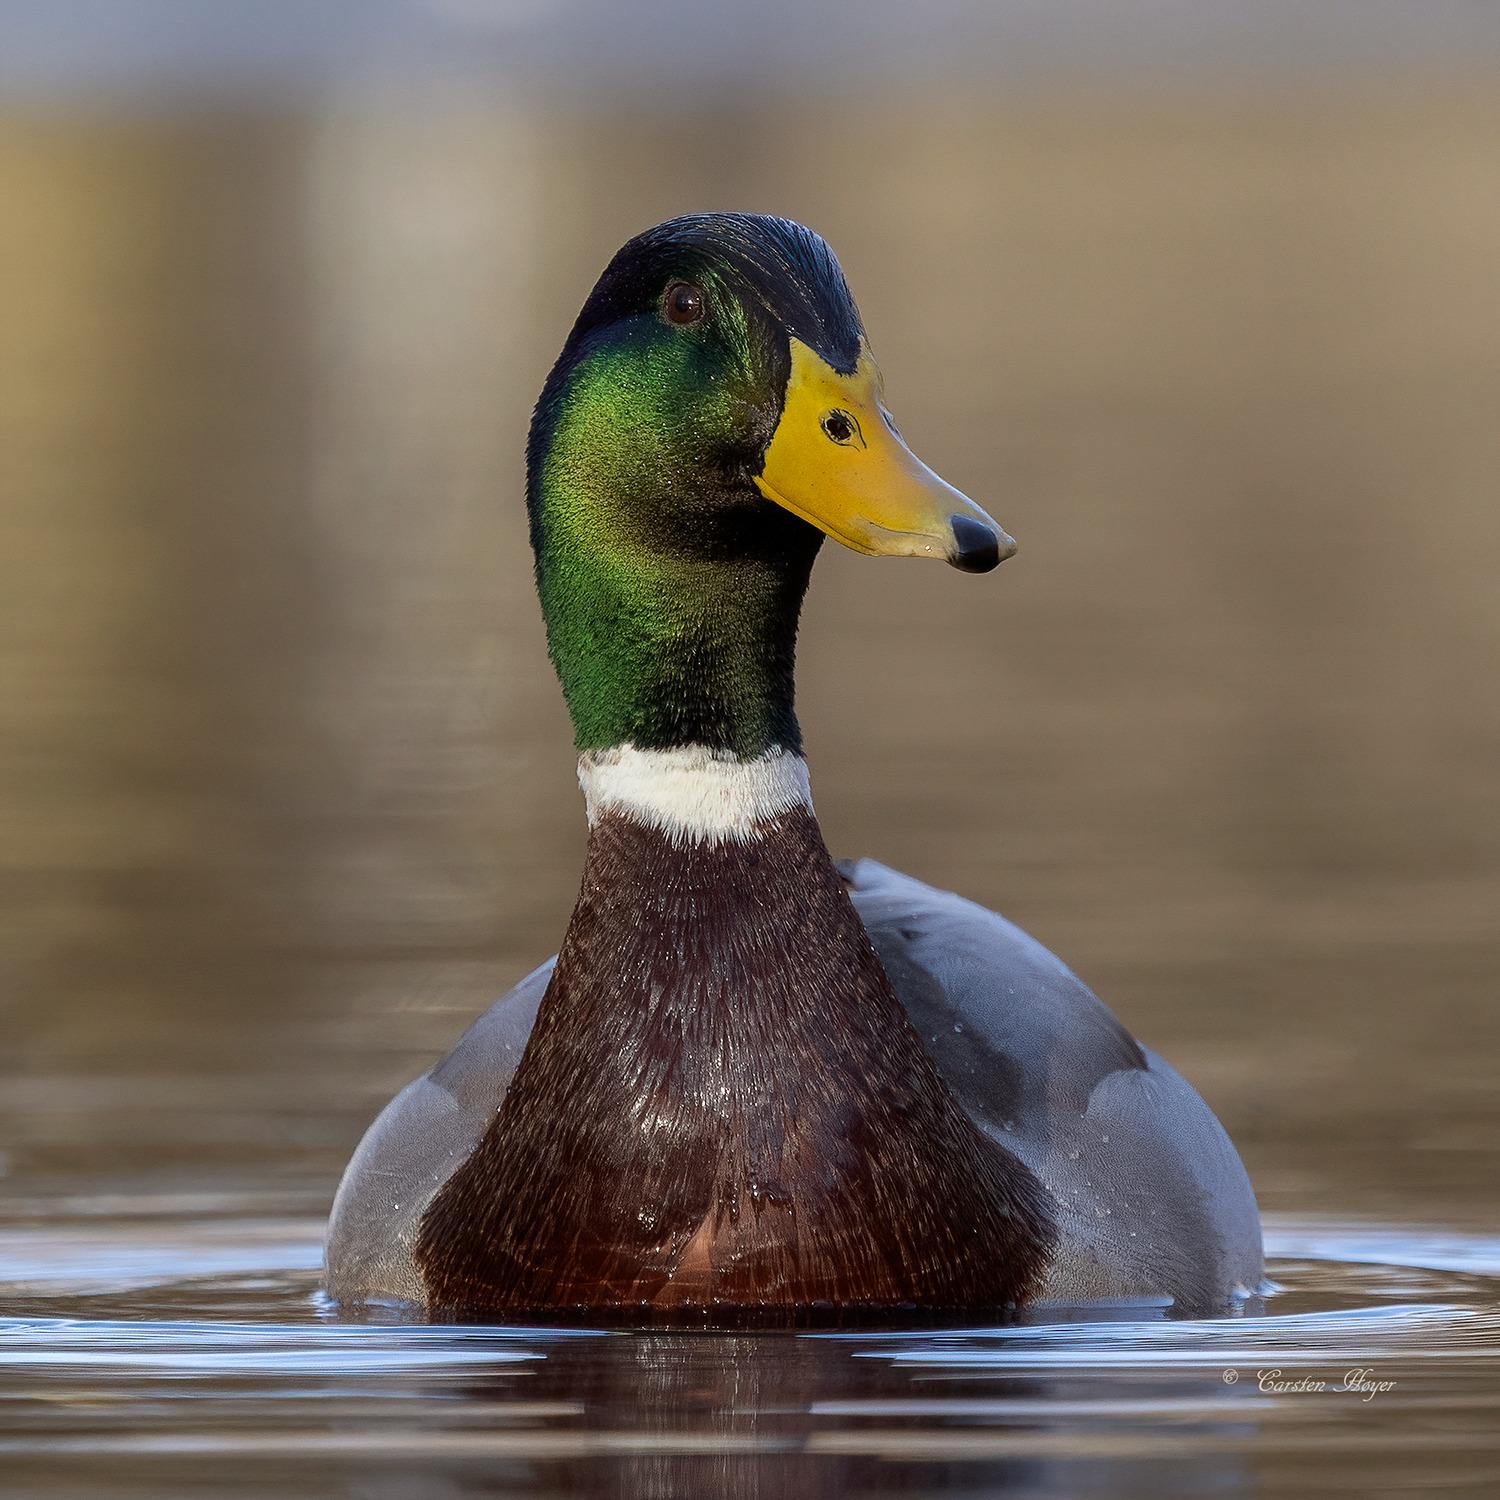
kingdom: Animalia
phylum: Chordata
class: Aves
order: Anseriformes
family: Anatidae
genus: Anas
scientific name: Anas platyrhynchos
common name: Gråand
